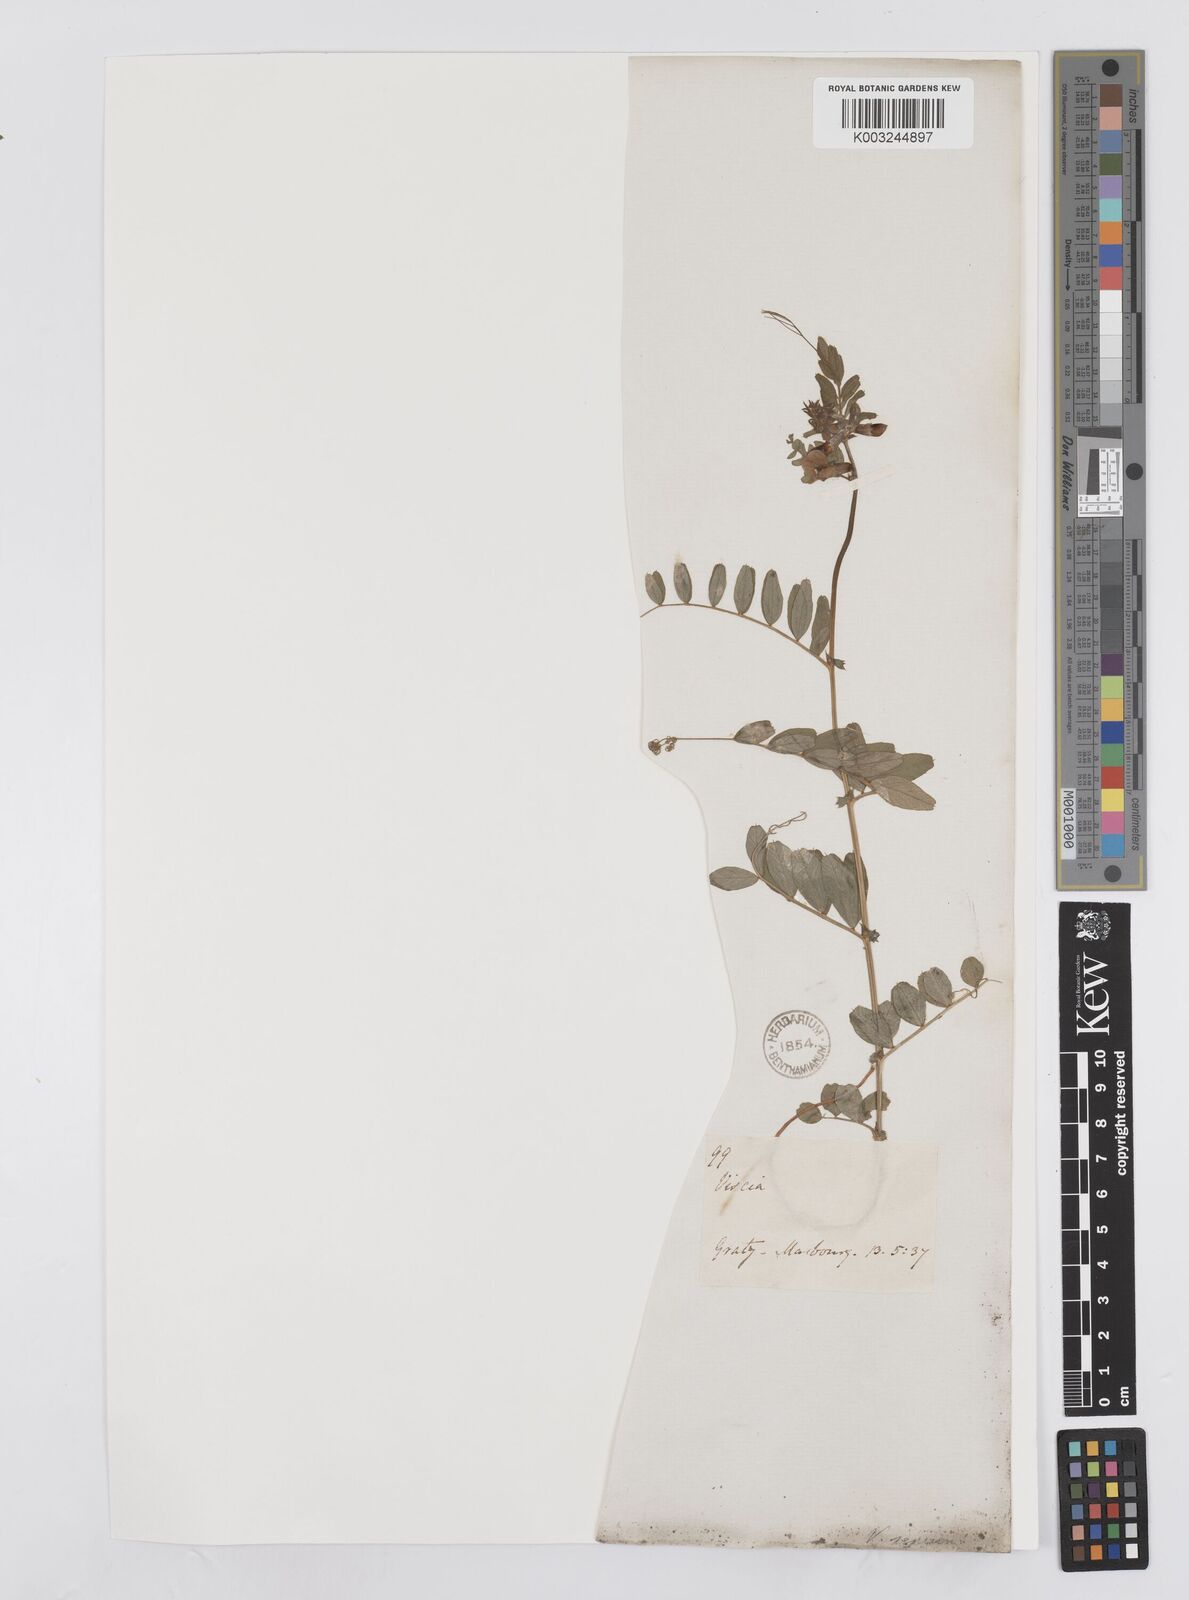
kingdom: Plantae
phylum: Tracheophyta
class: Magnoliopsida
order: Fabales
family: Fabaceae
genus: Vicia
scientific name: Vicia sepium
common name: Bush vetch
